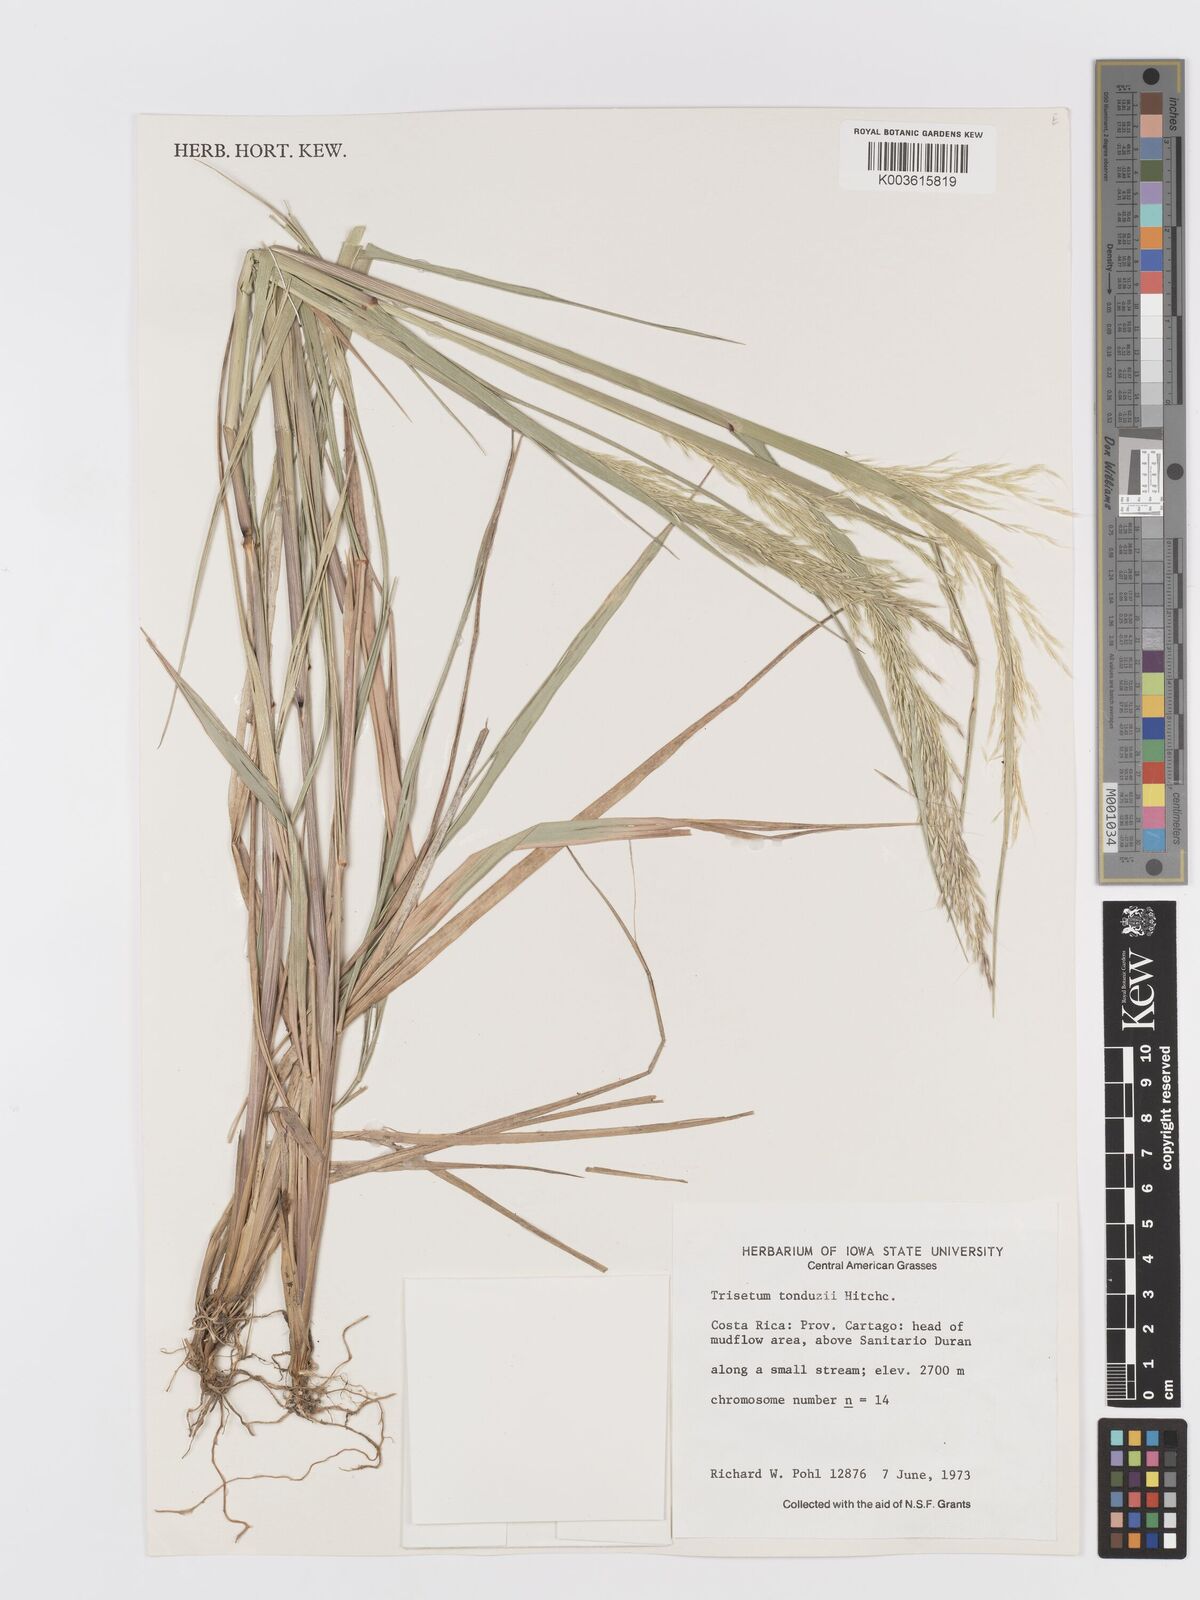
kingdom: Plantae
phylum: Tracheophyta
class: Liliopsida
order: Poales
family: Poaceae
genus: Peyritschia
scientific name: Peyritschia tonduzii
